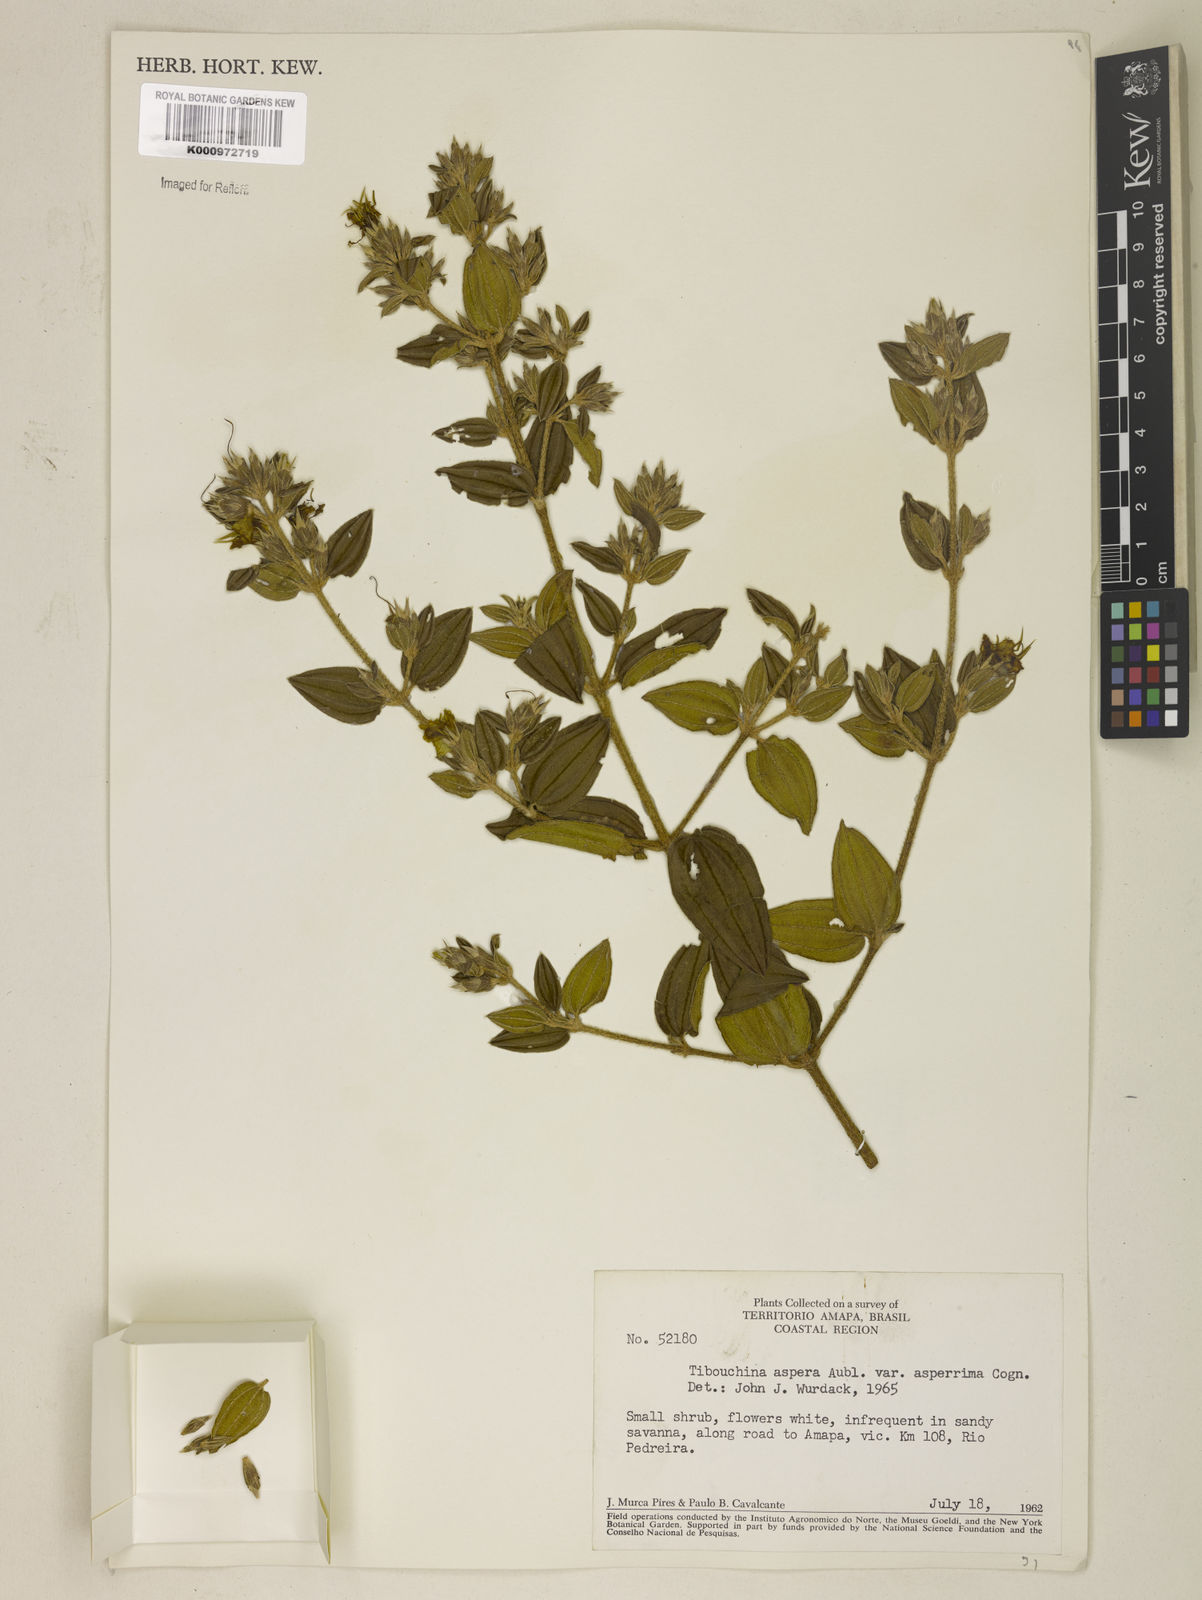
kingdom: Plantae
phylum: Tracheophyta
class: Magnoliopsida
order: Myrtales
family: Melastomataceae
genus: Tibouchina
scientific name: Tibouchina aspera
